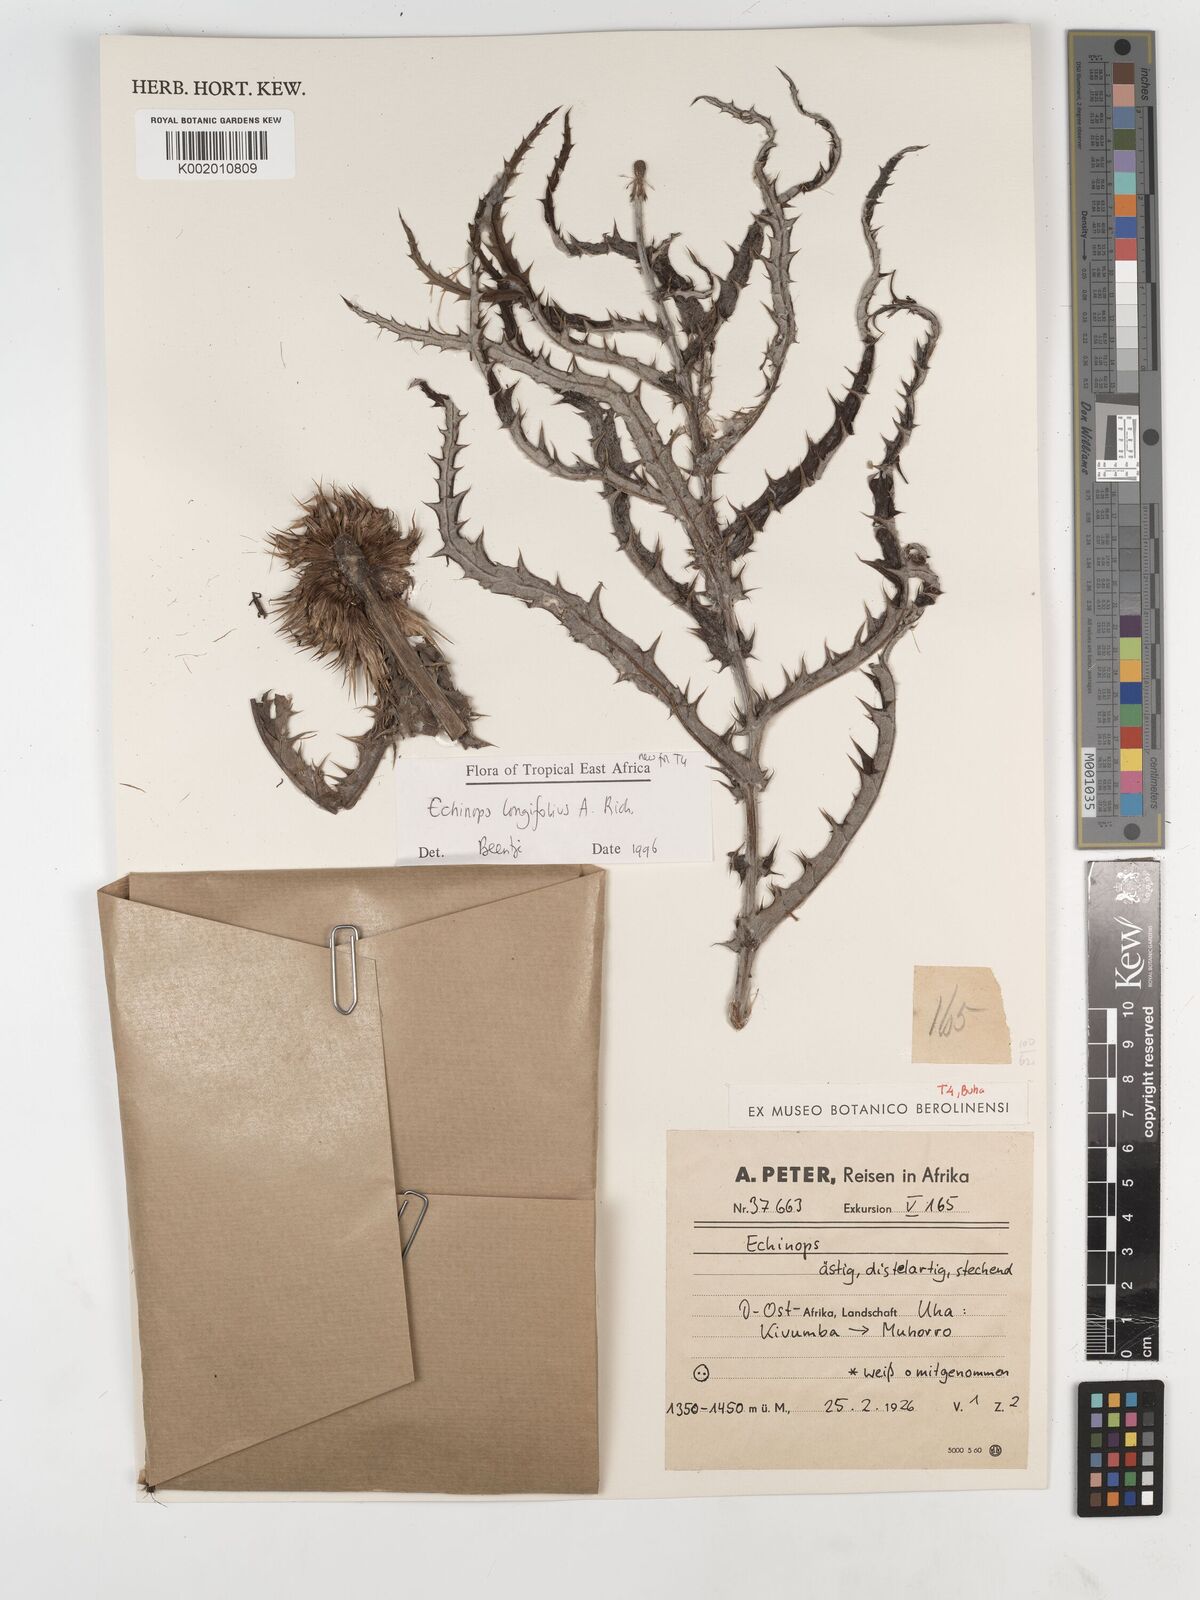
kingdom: Plantae
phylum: Tracheophyta
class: Magnoliopsida
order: Asterales
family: Asteraceae
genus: Echinops
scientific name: Echinops longifolius
